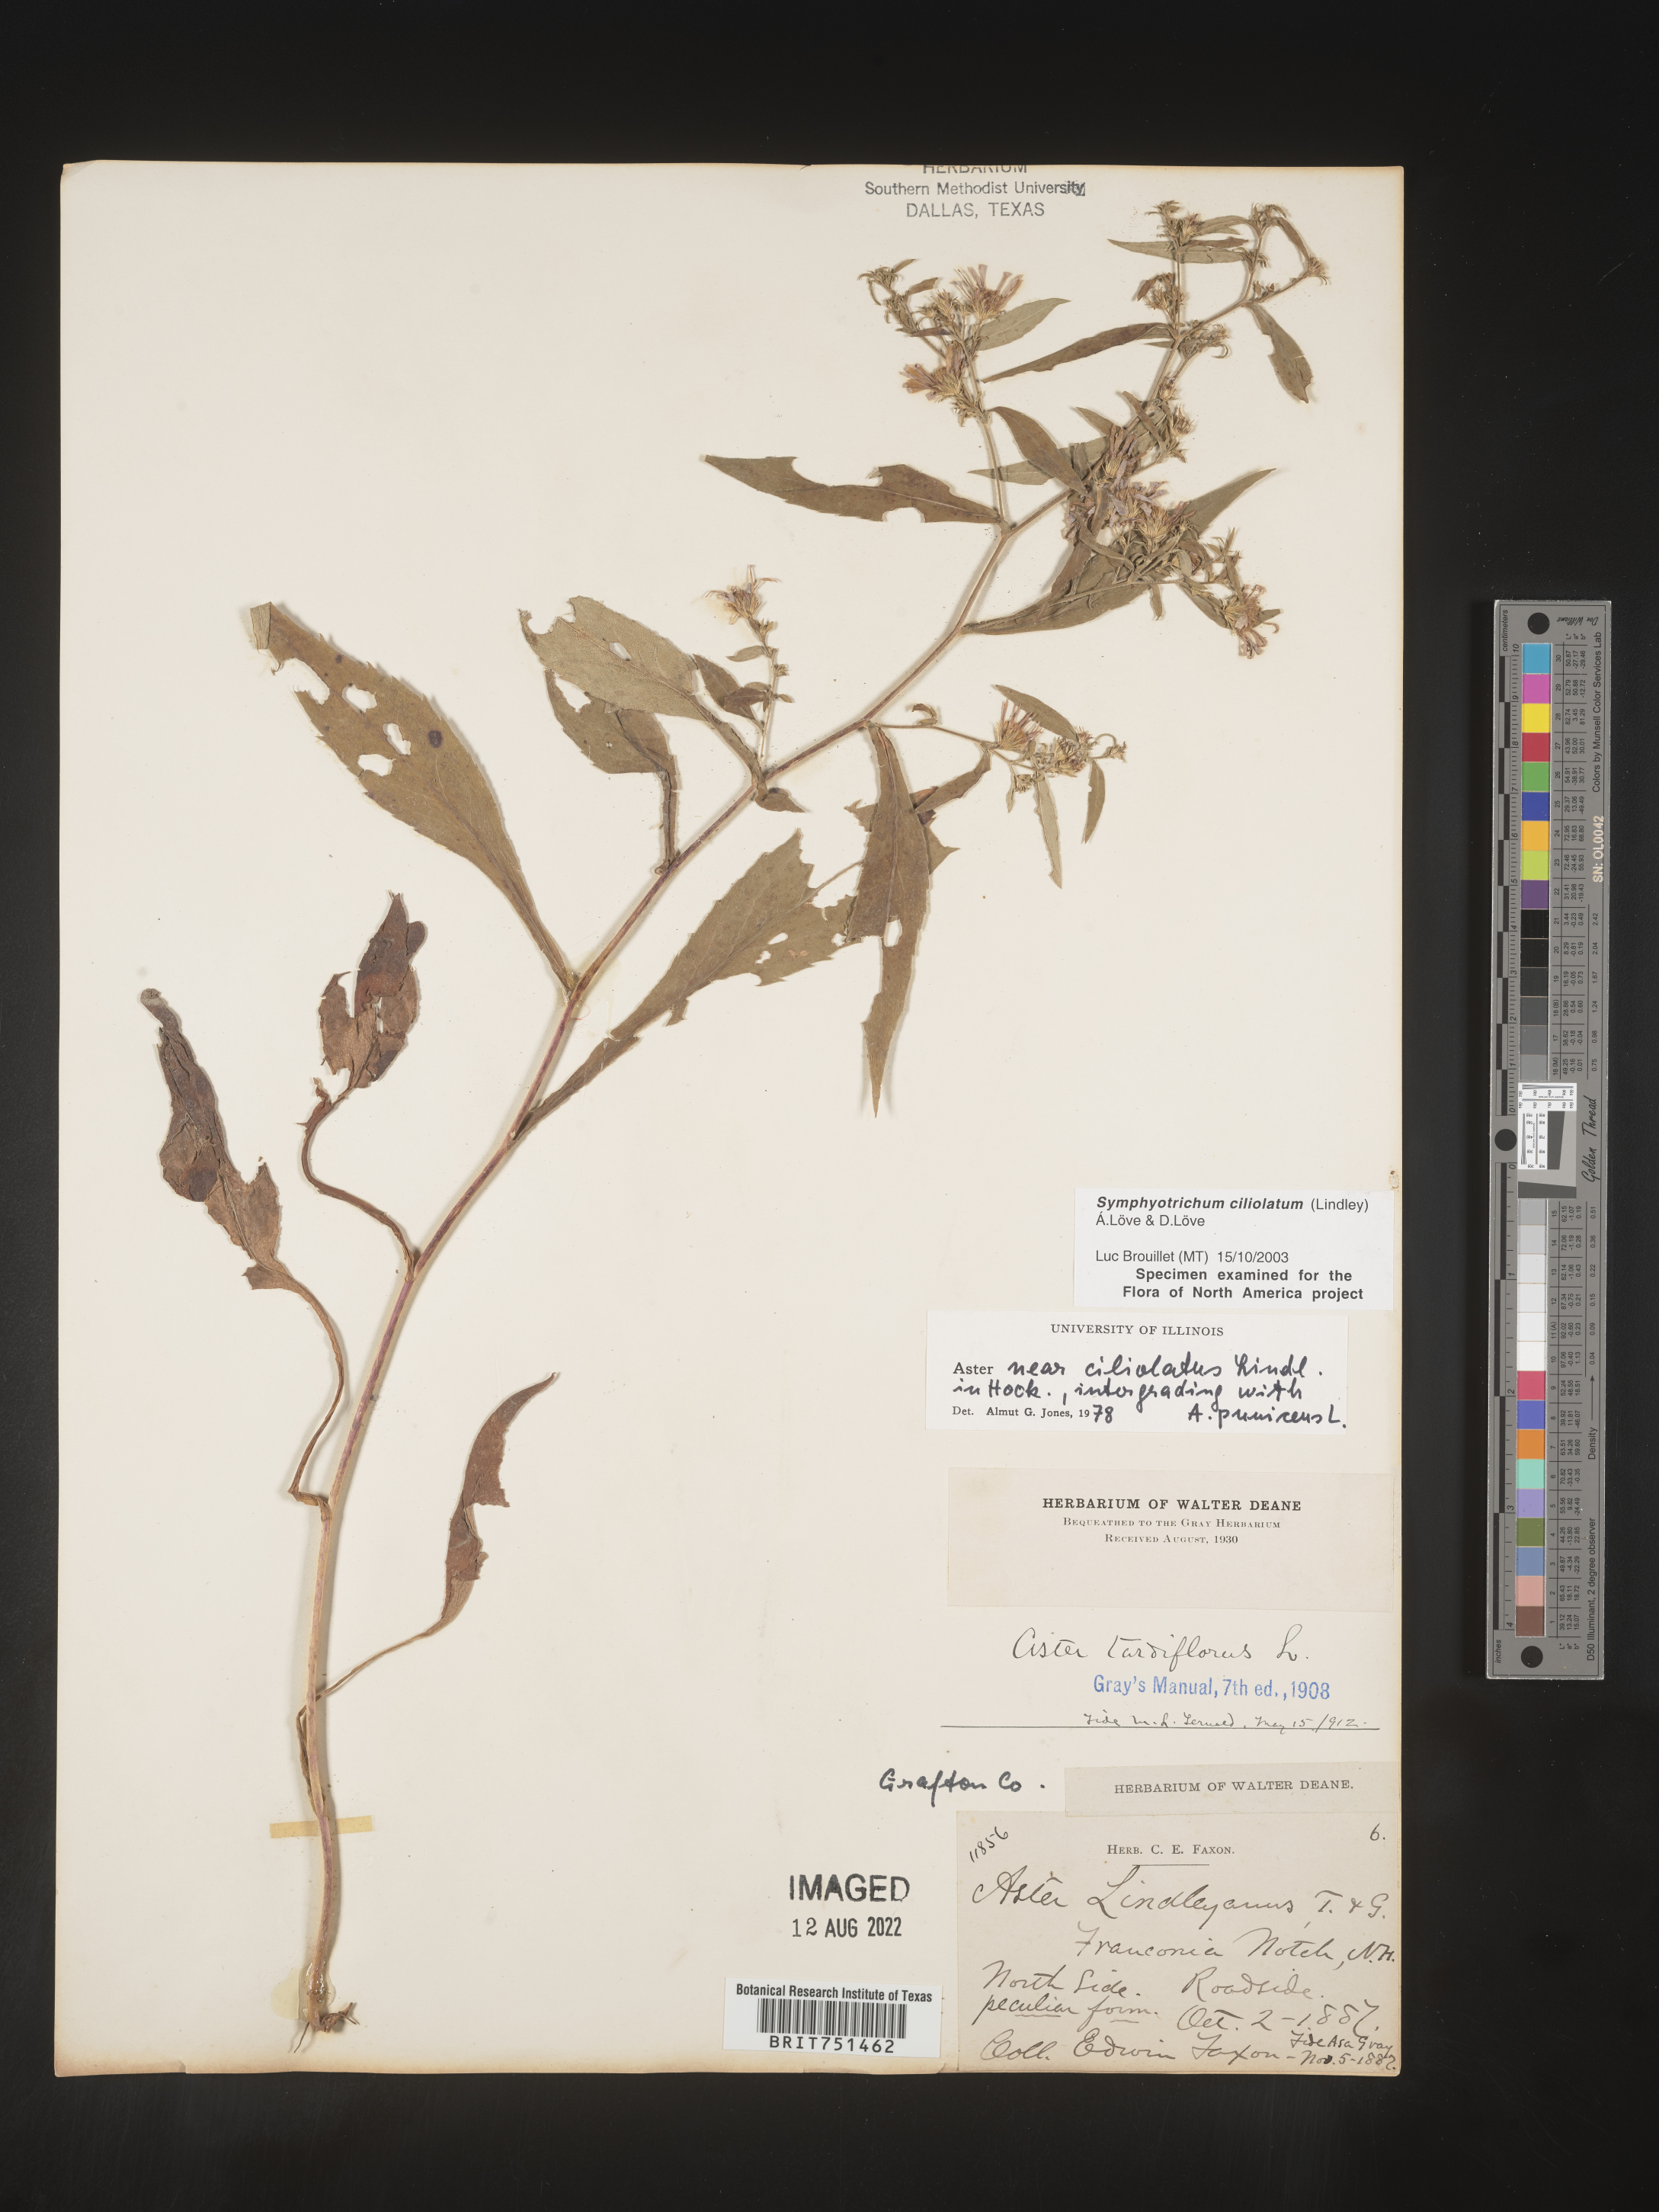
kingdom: Plantae
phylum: Tracheophyta
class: Magnoliopsida
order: Asterales
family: Asteraceae
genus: Symphyotrichum
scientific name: Symphyotrichum ciliolatum
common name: Fringed blue aster
